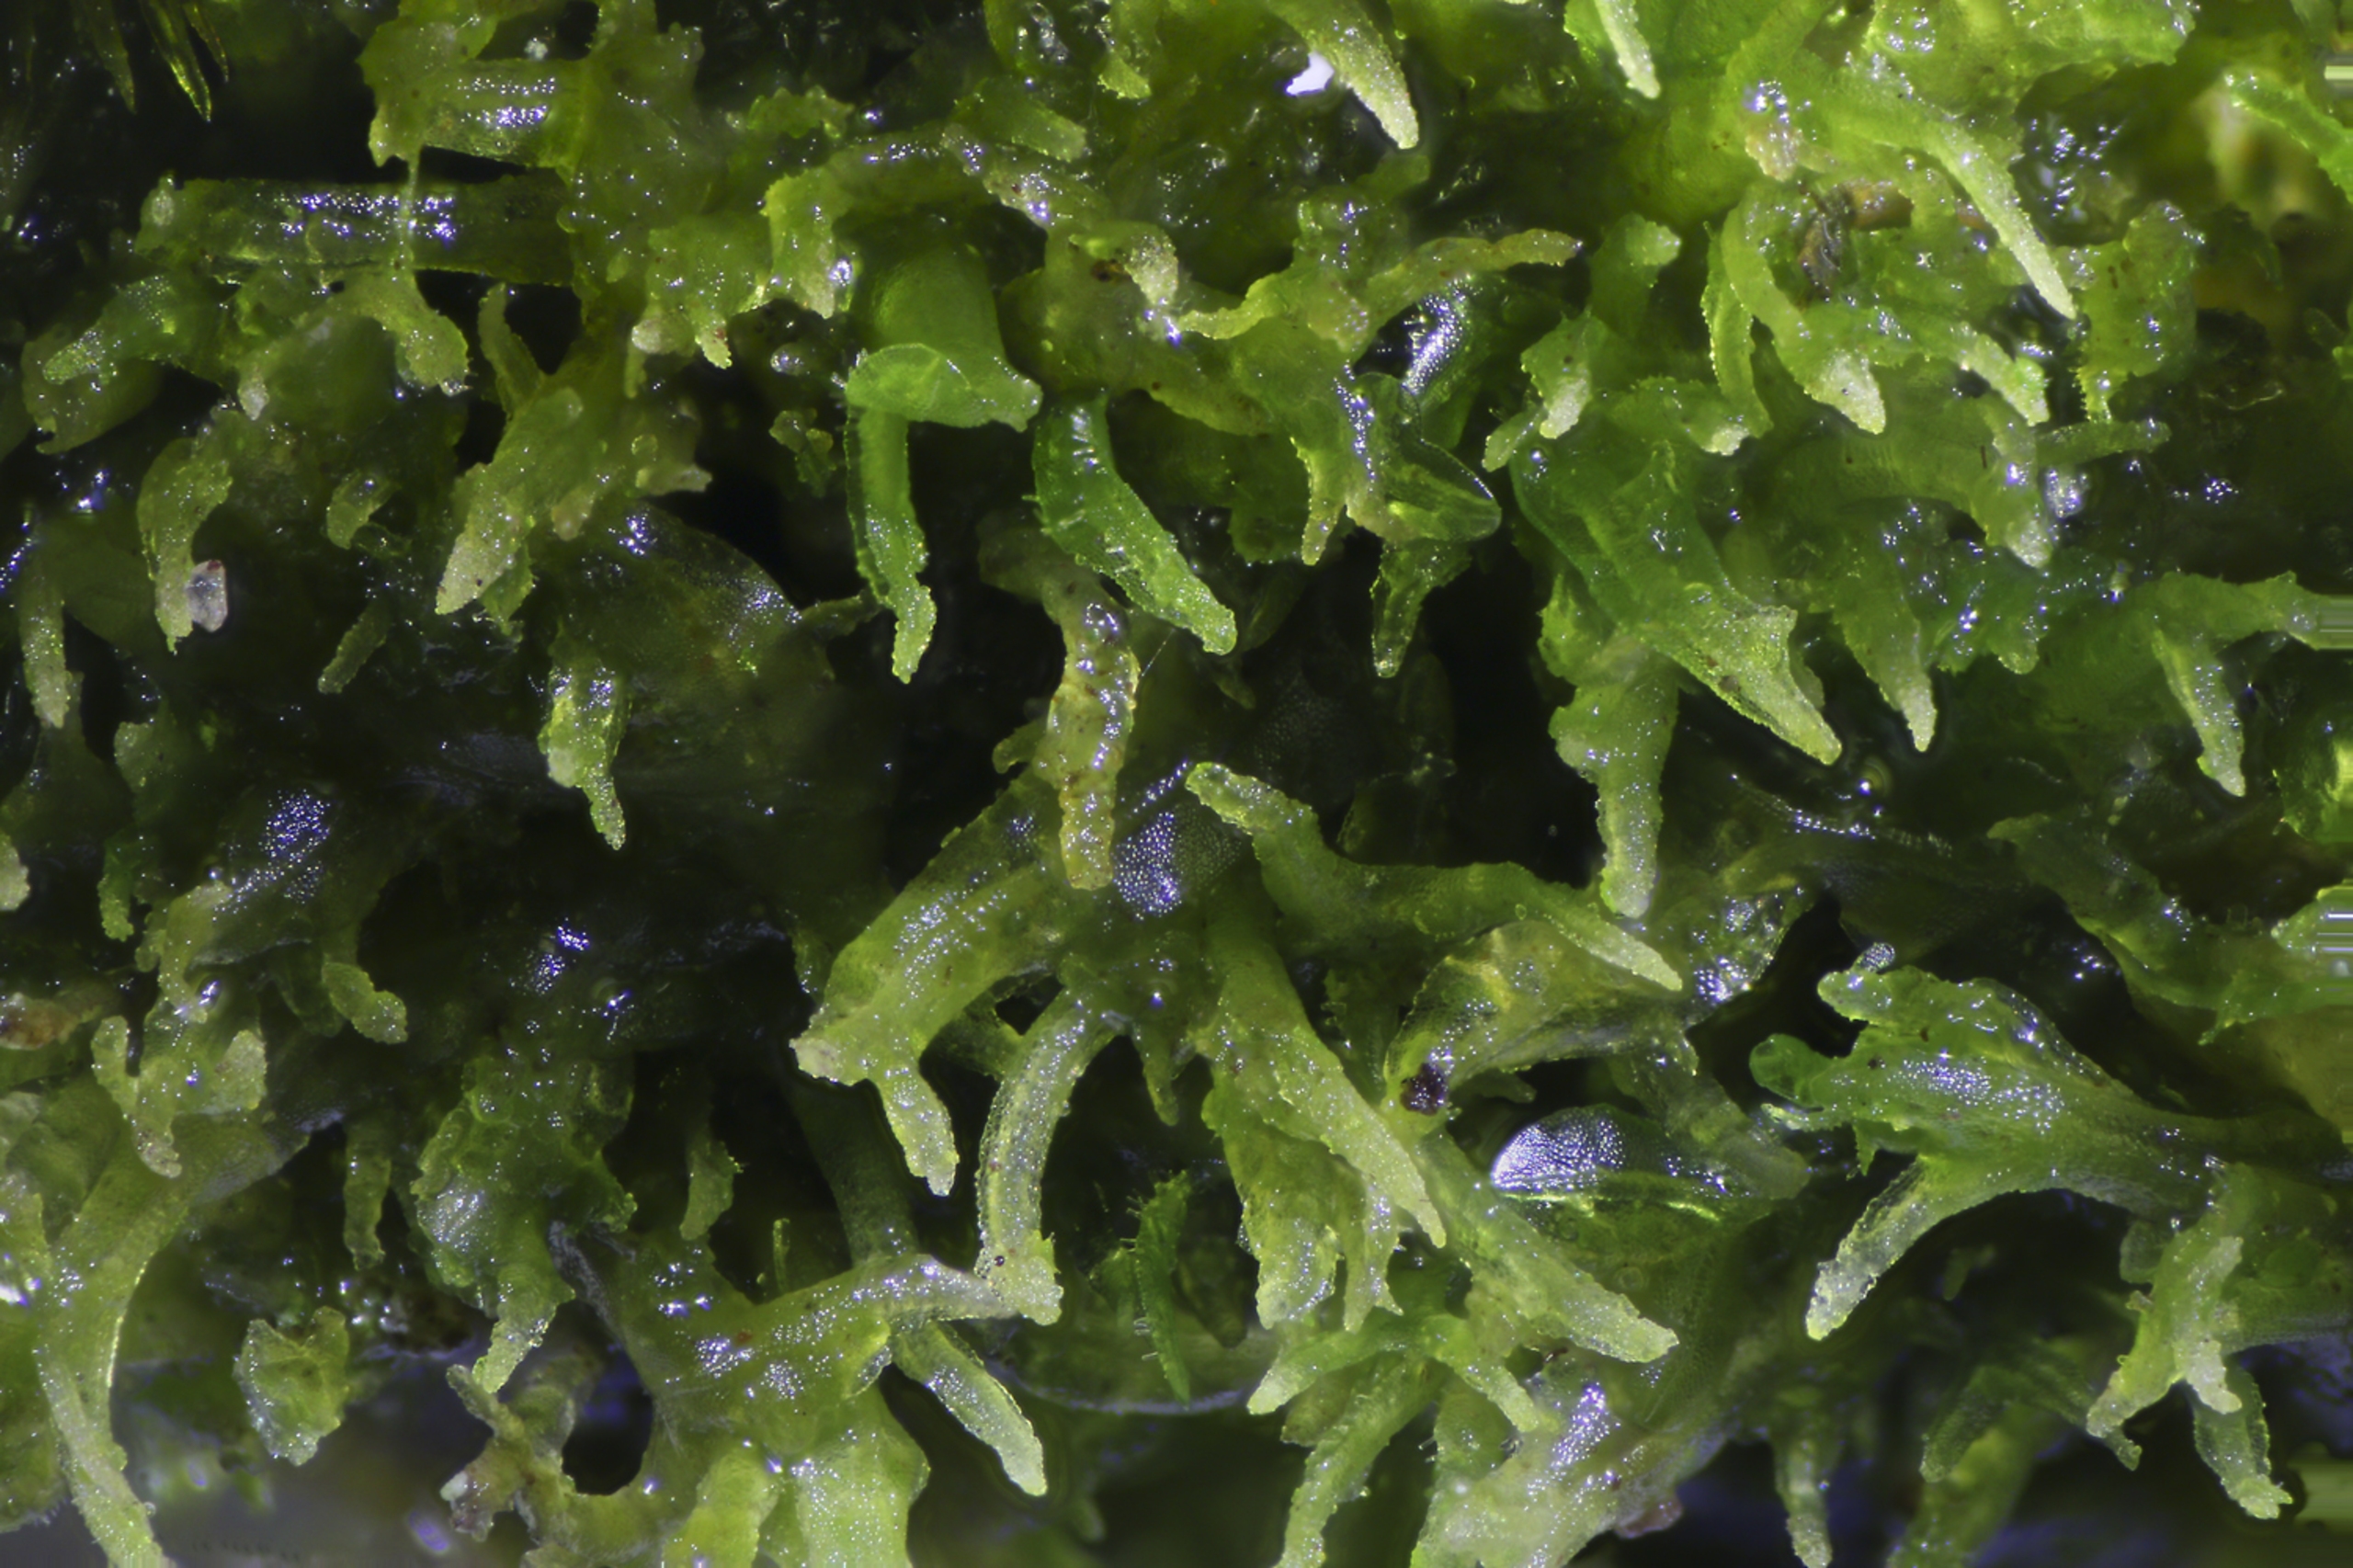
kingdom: Plantae
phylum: Marchantiophyta
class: Jungermanniopsida
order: Metzgeriales
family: Aneuraceae
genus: Riccardia
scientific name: Riccardia palmata
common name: Blågrøn gaffelløv
